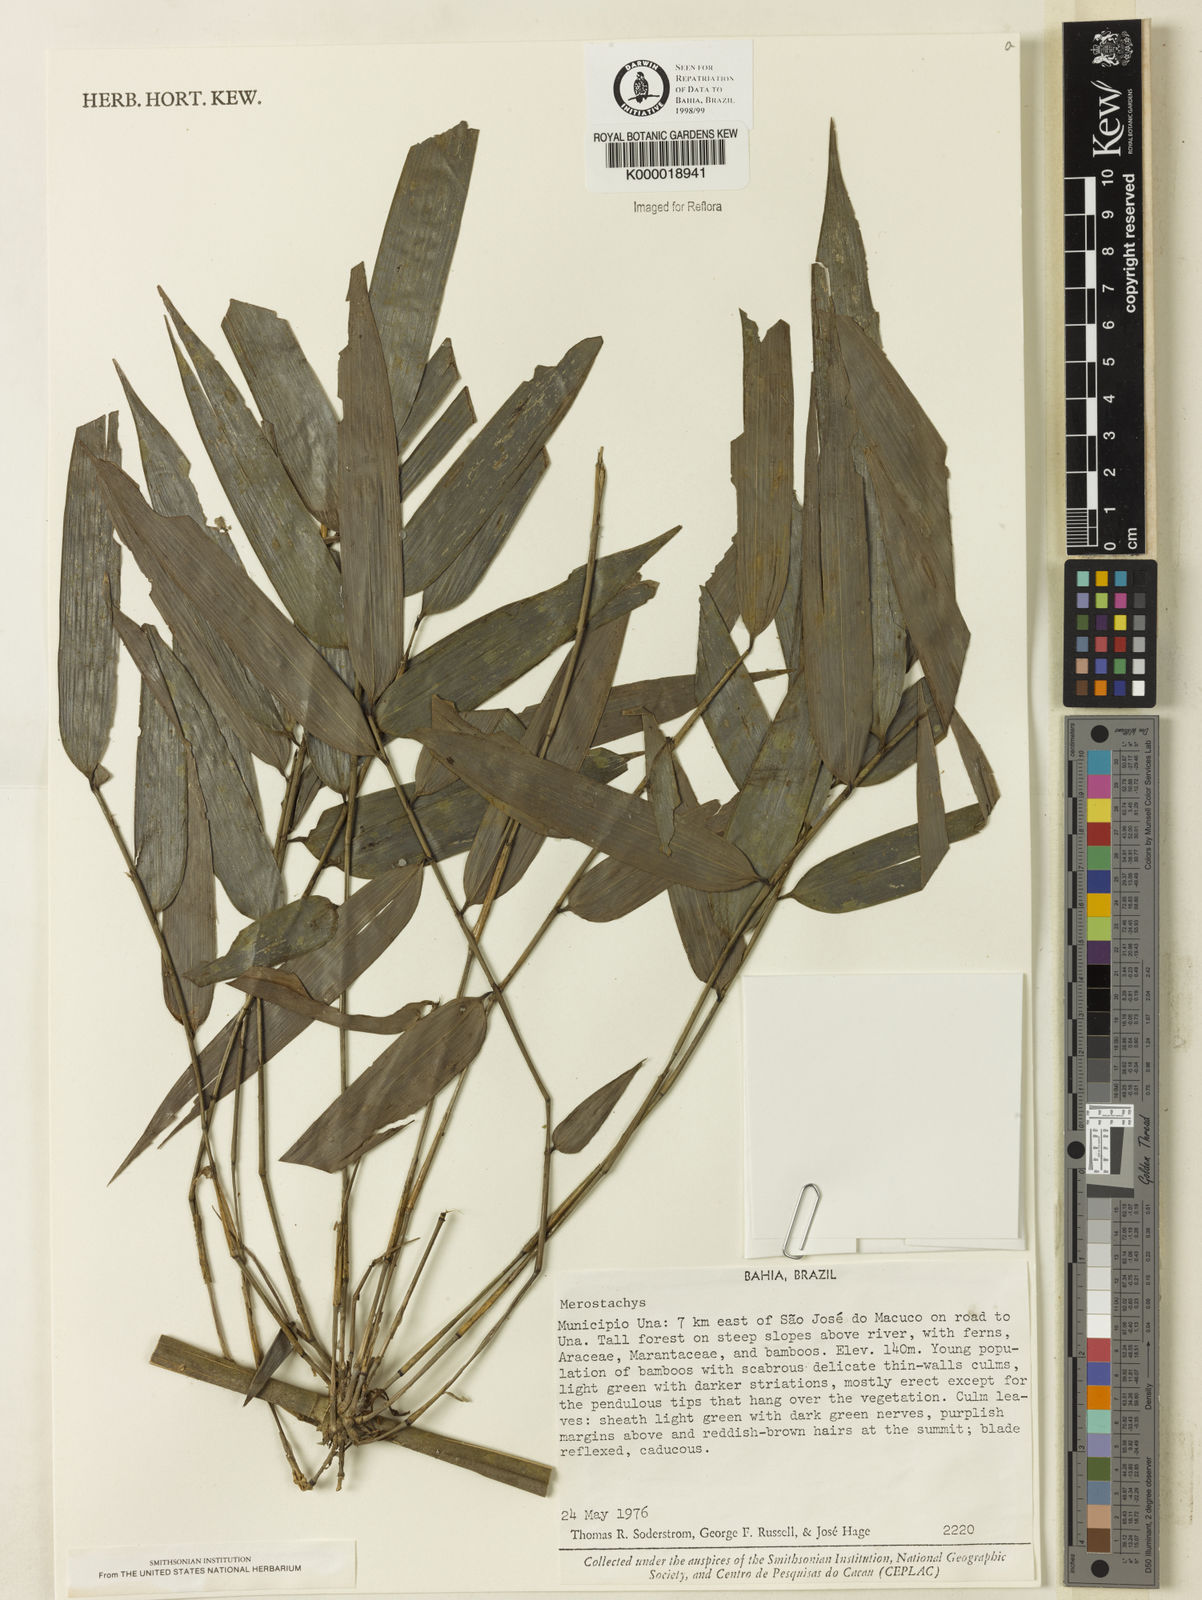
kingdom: Plantae
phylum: Tracheophyta
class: Liliopsida
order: Poales
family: Poaceae
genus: Merostachys
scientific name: Merostachys
